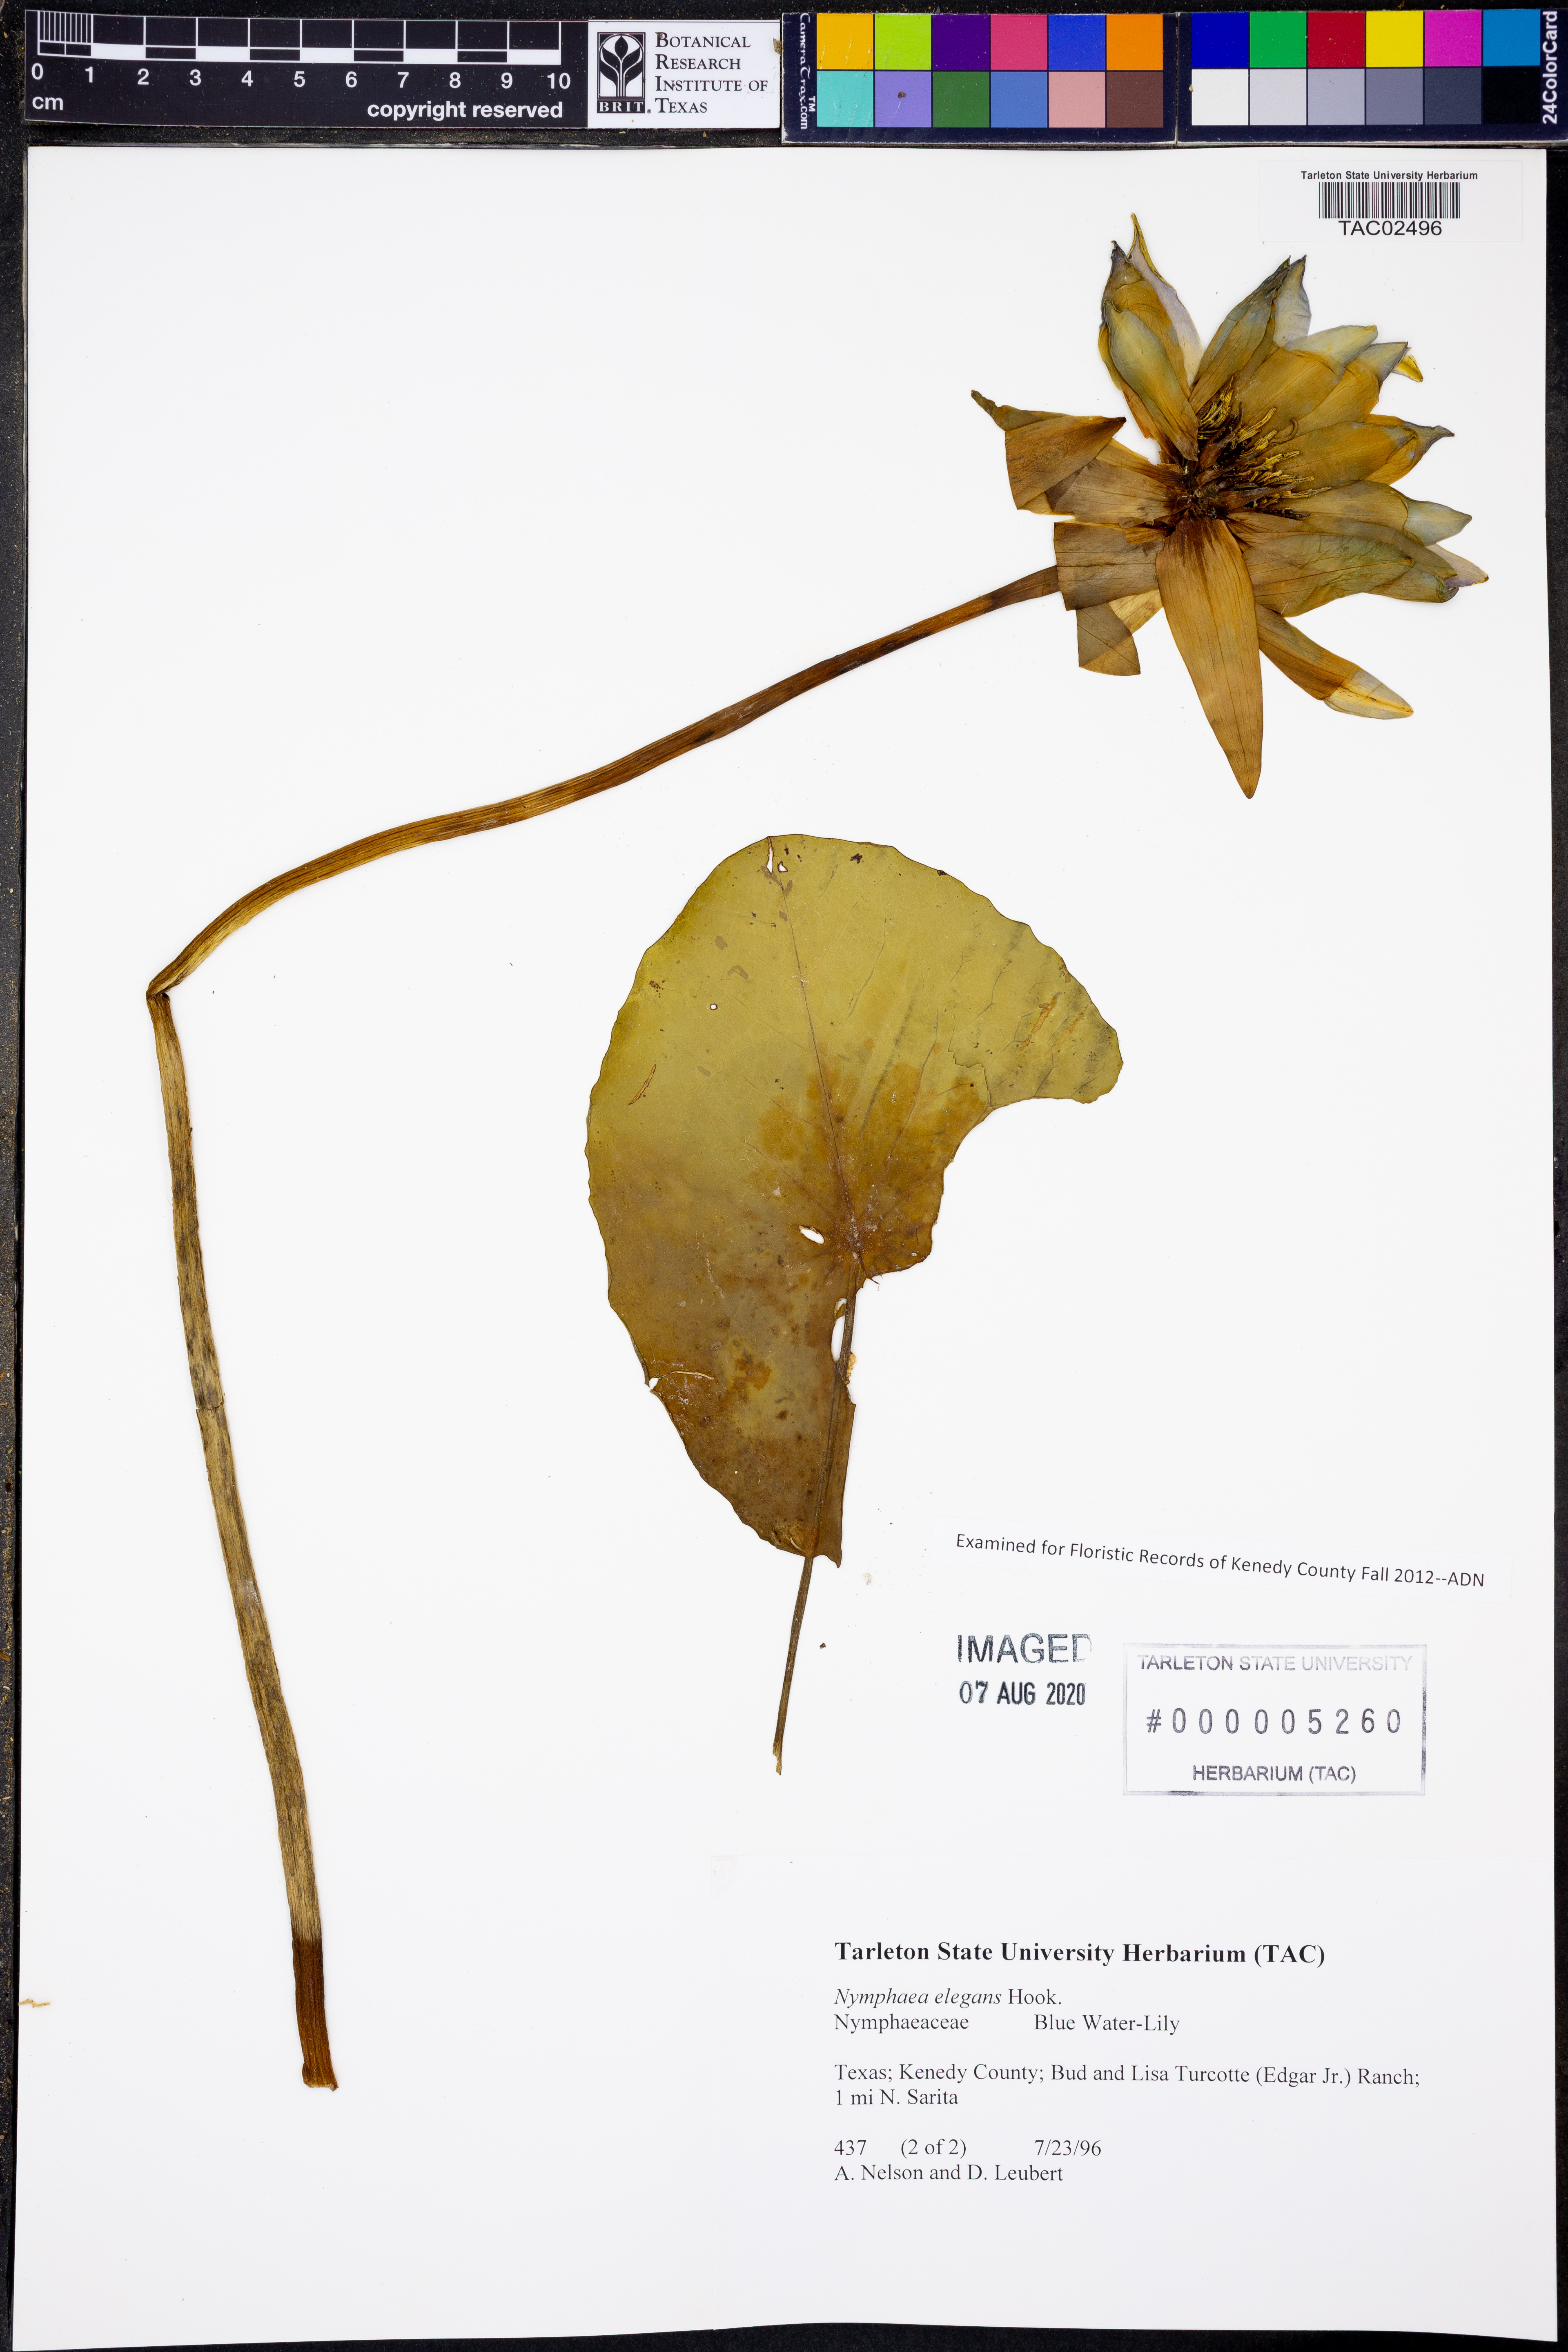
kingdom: Plantae
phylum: Tracheophyta
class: Magnoliopsida
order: Nymphaeales
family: Nymphaeaceae
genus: Nymphaea
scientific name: Nymphaea elegans
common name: Blue water-lily
